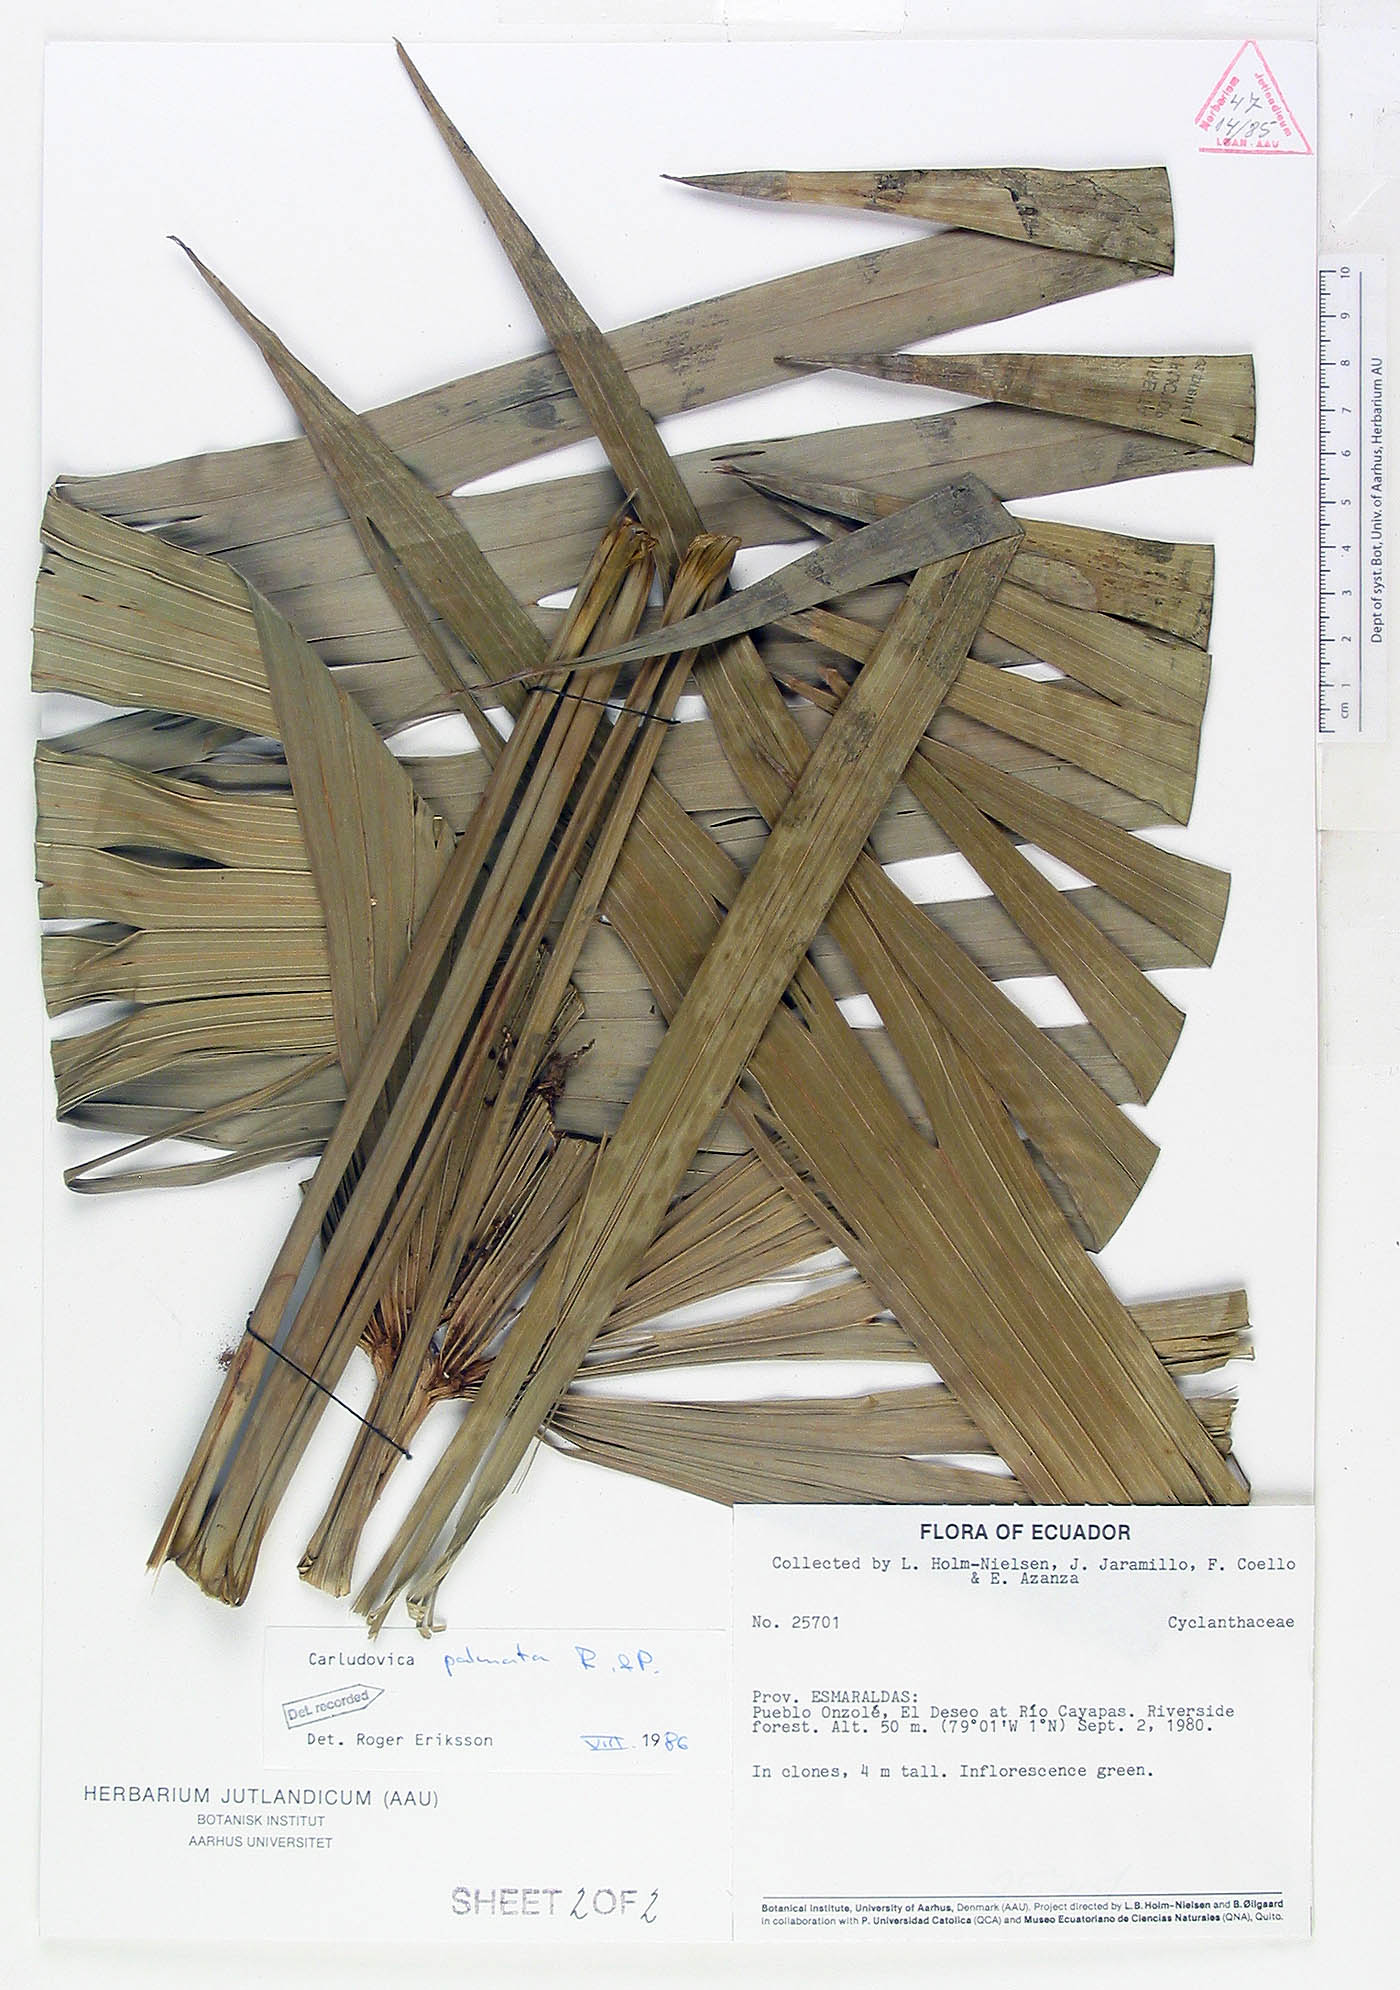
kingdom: Plantae
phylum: Tracheophyta
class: Liliopsida
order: Pandanales
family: Cyclanthaceae
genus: Carludovica
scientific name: Carludovica palmata
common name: Panama hat plant
